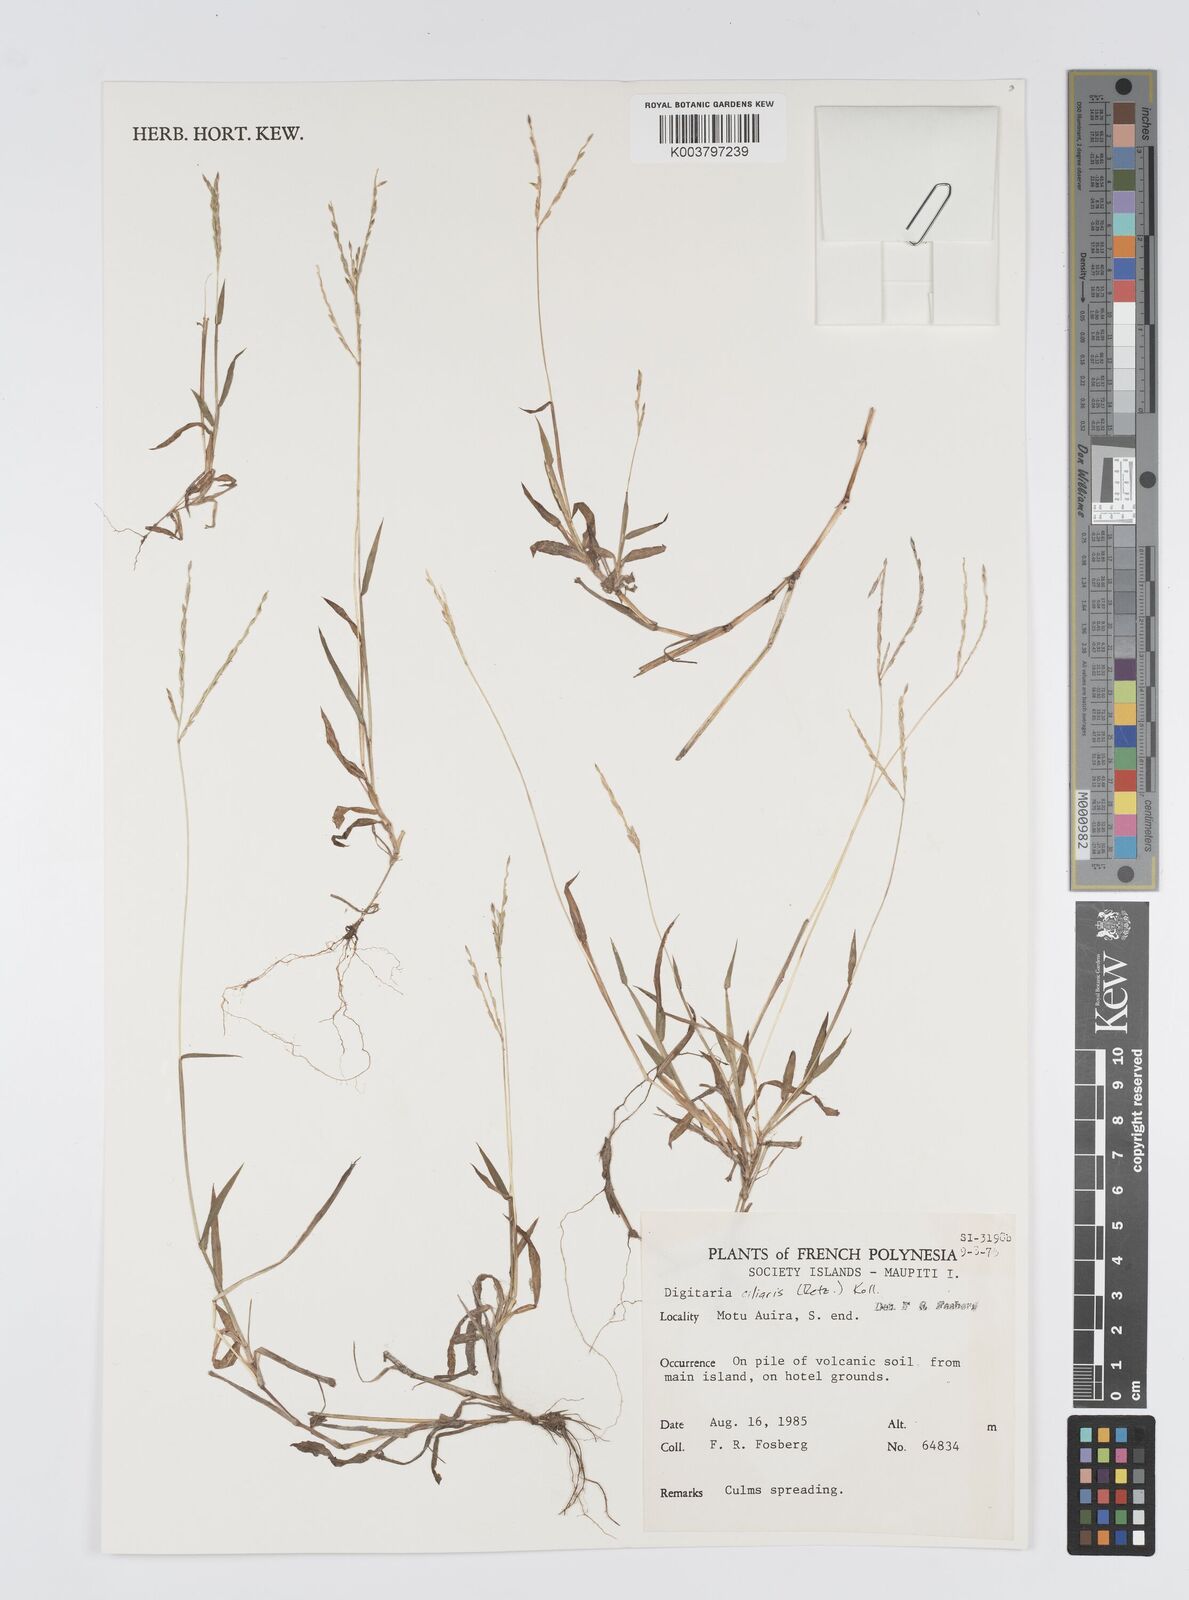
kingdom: Plantae
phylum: Tracheophyta
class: Liliopsida
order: Poales
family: Poaceae
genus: Digitaria
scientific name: Digitaria ciliaris
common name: Tropical finger-grass
